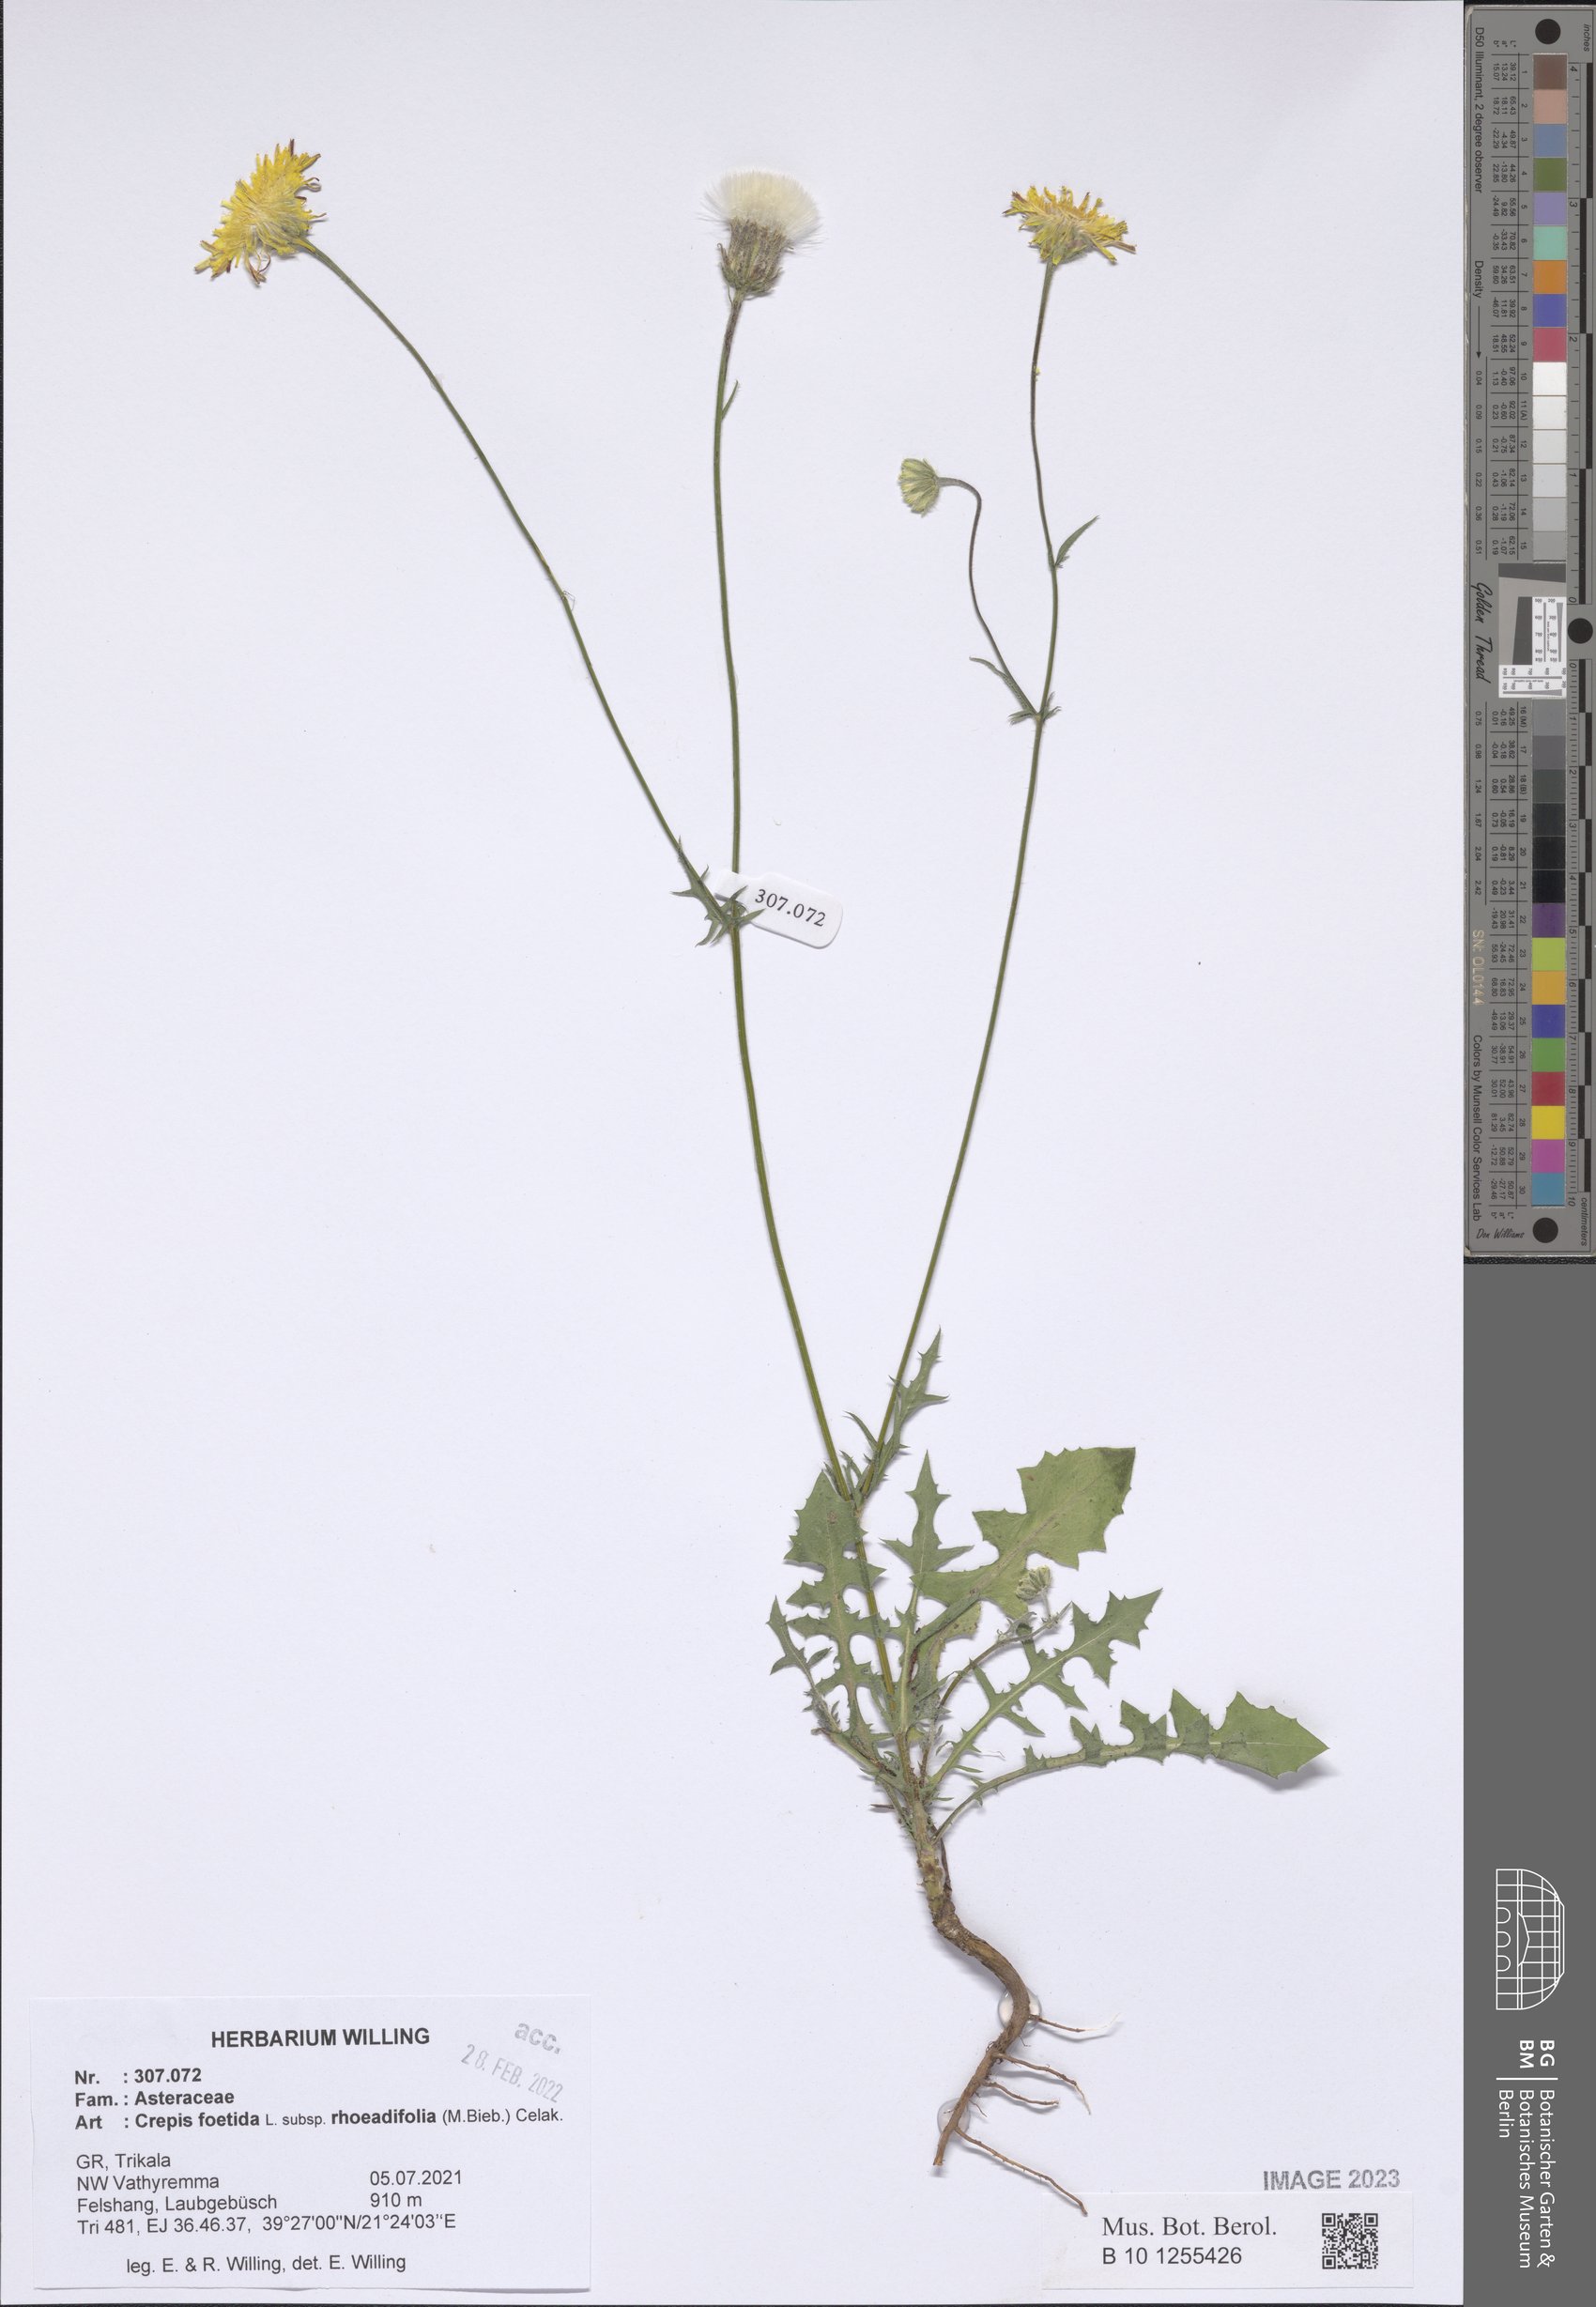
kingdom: Plantae
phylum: Tracheophyta
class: Magnoliopsida
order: Asterales
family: Asteraceae
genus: Crepis
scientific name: Crepis foetida
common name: Stinking hawk's-beard
